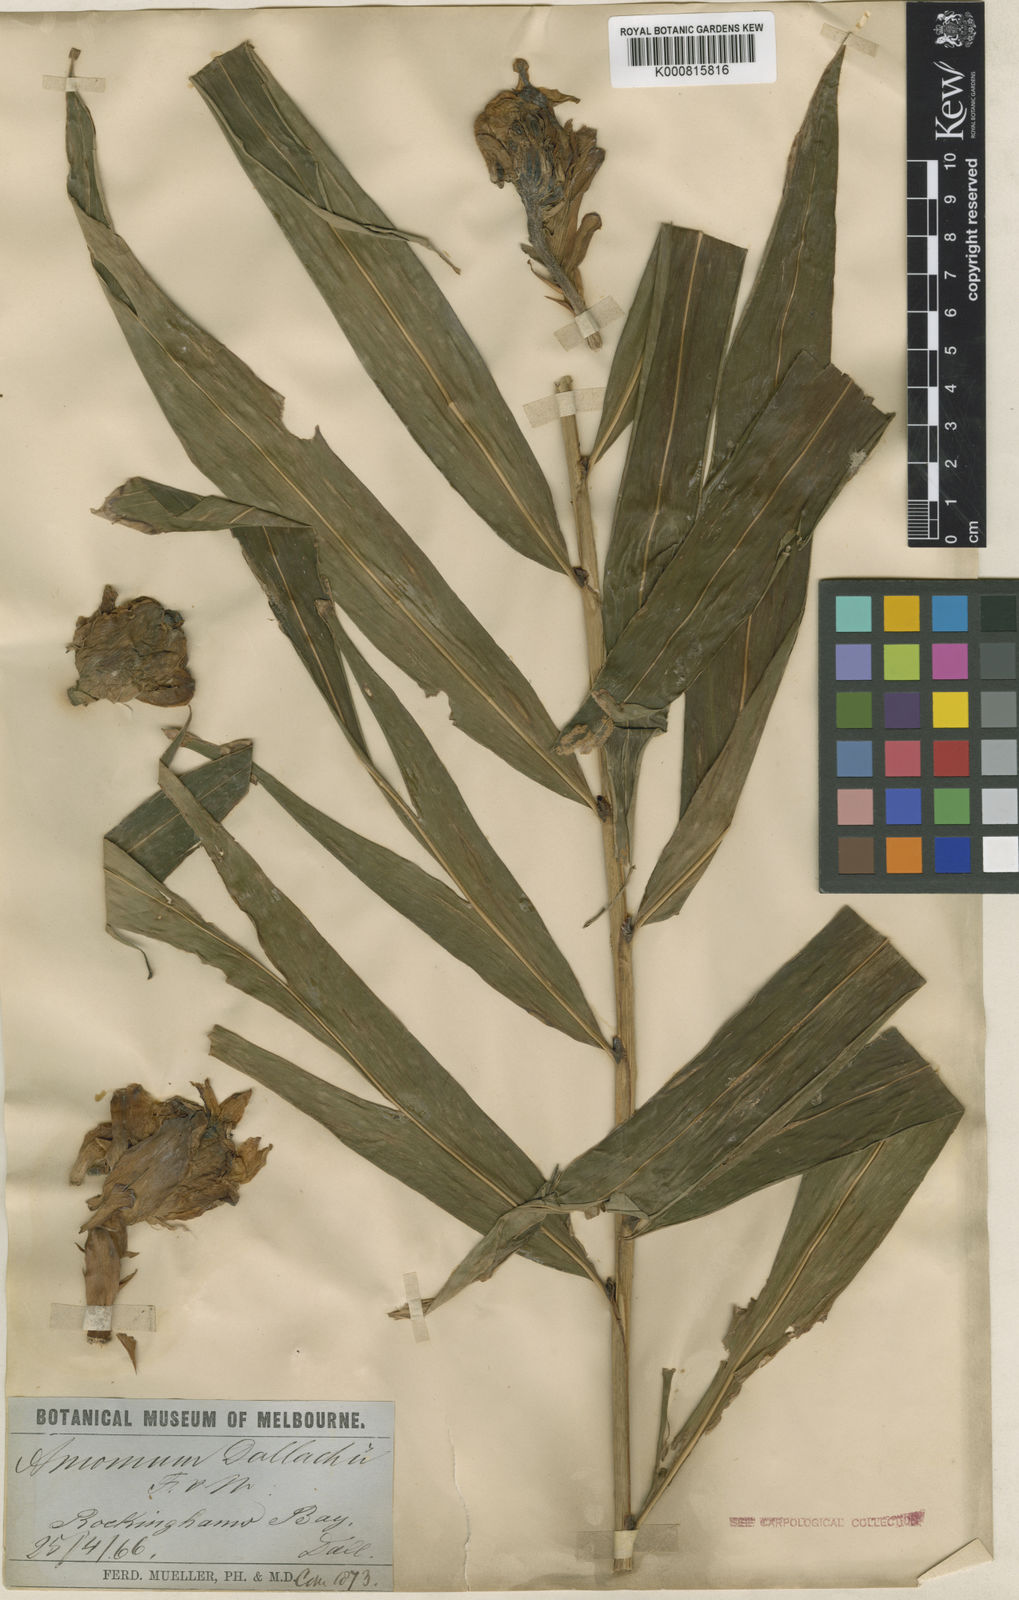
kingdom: Plantae
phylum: Tracheophyta
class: Liliopsida
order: Zingiberales
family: Zingiberaceae
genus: Meistera
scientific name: Meistera dallachyi
